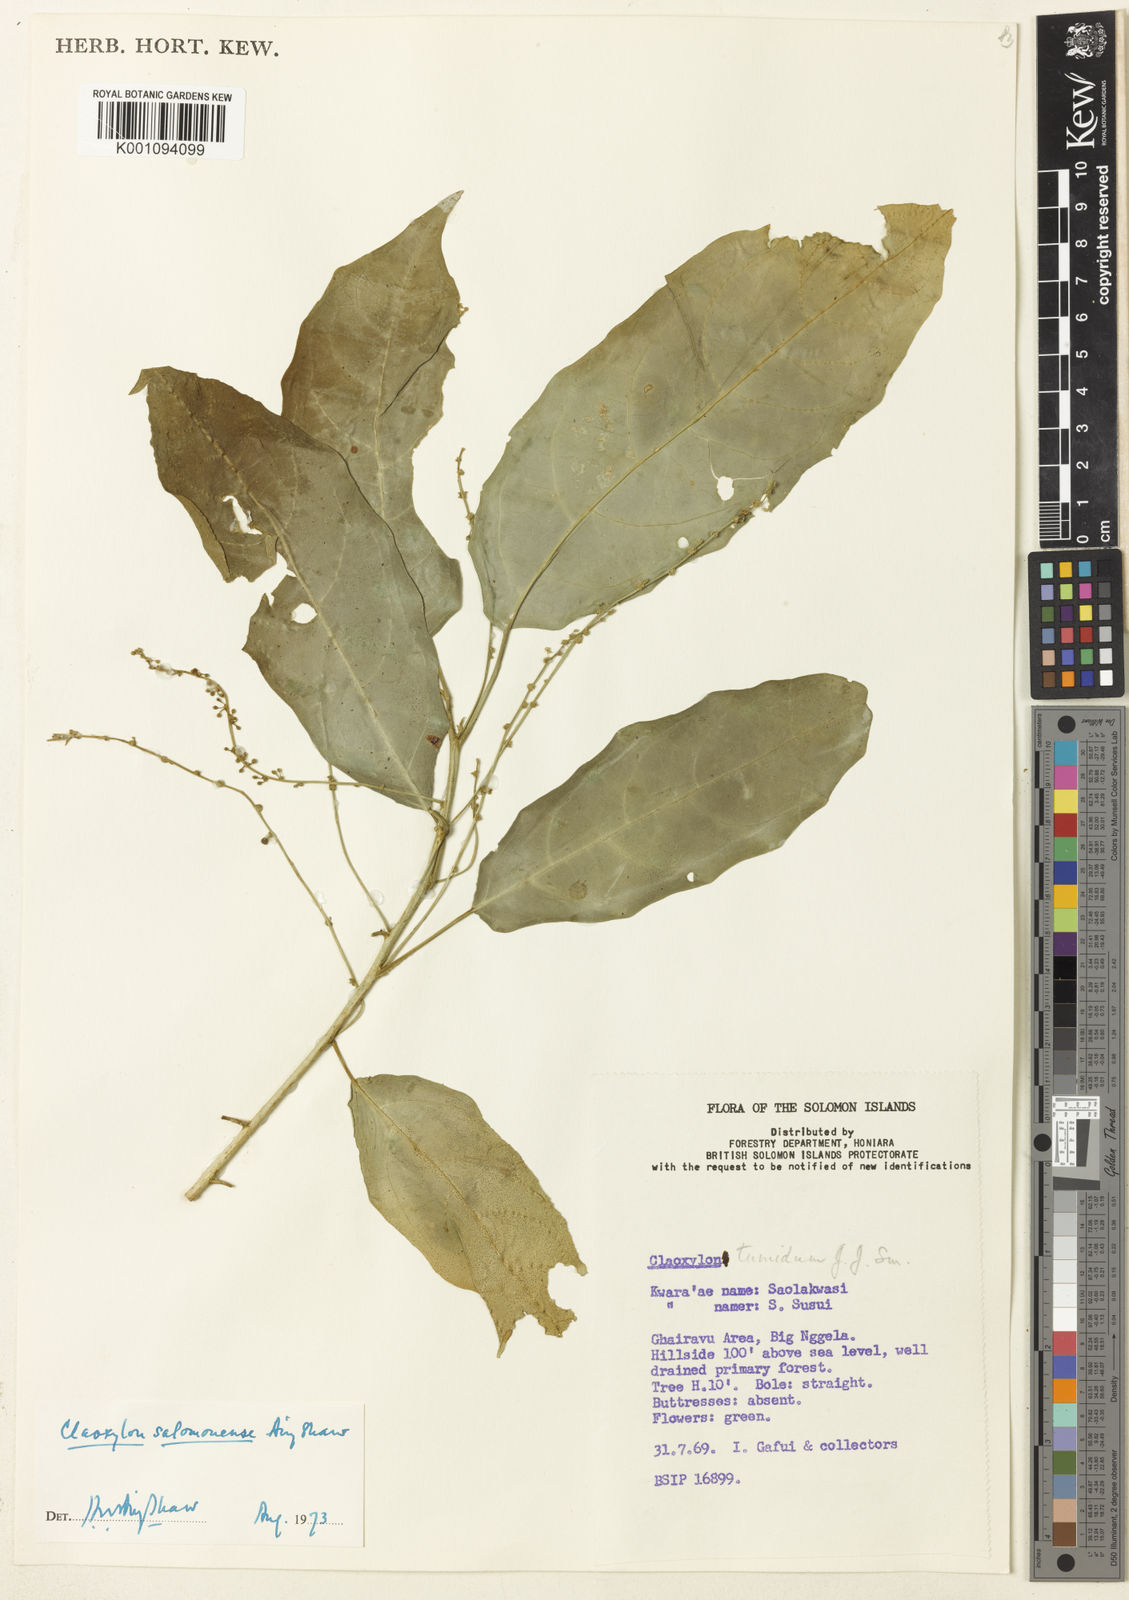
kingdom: Plantae
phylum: Tracheophyta
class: Magnoliopsida
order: Malpighiales
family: Euphorbiaceae
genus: Claoxylon
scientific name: Claoxylon salomonense
